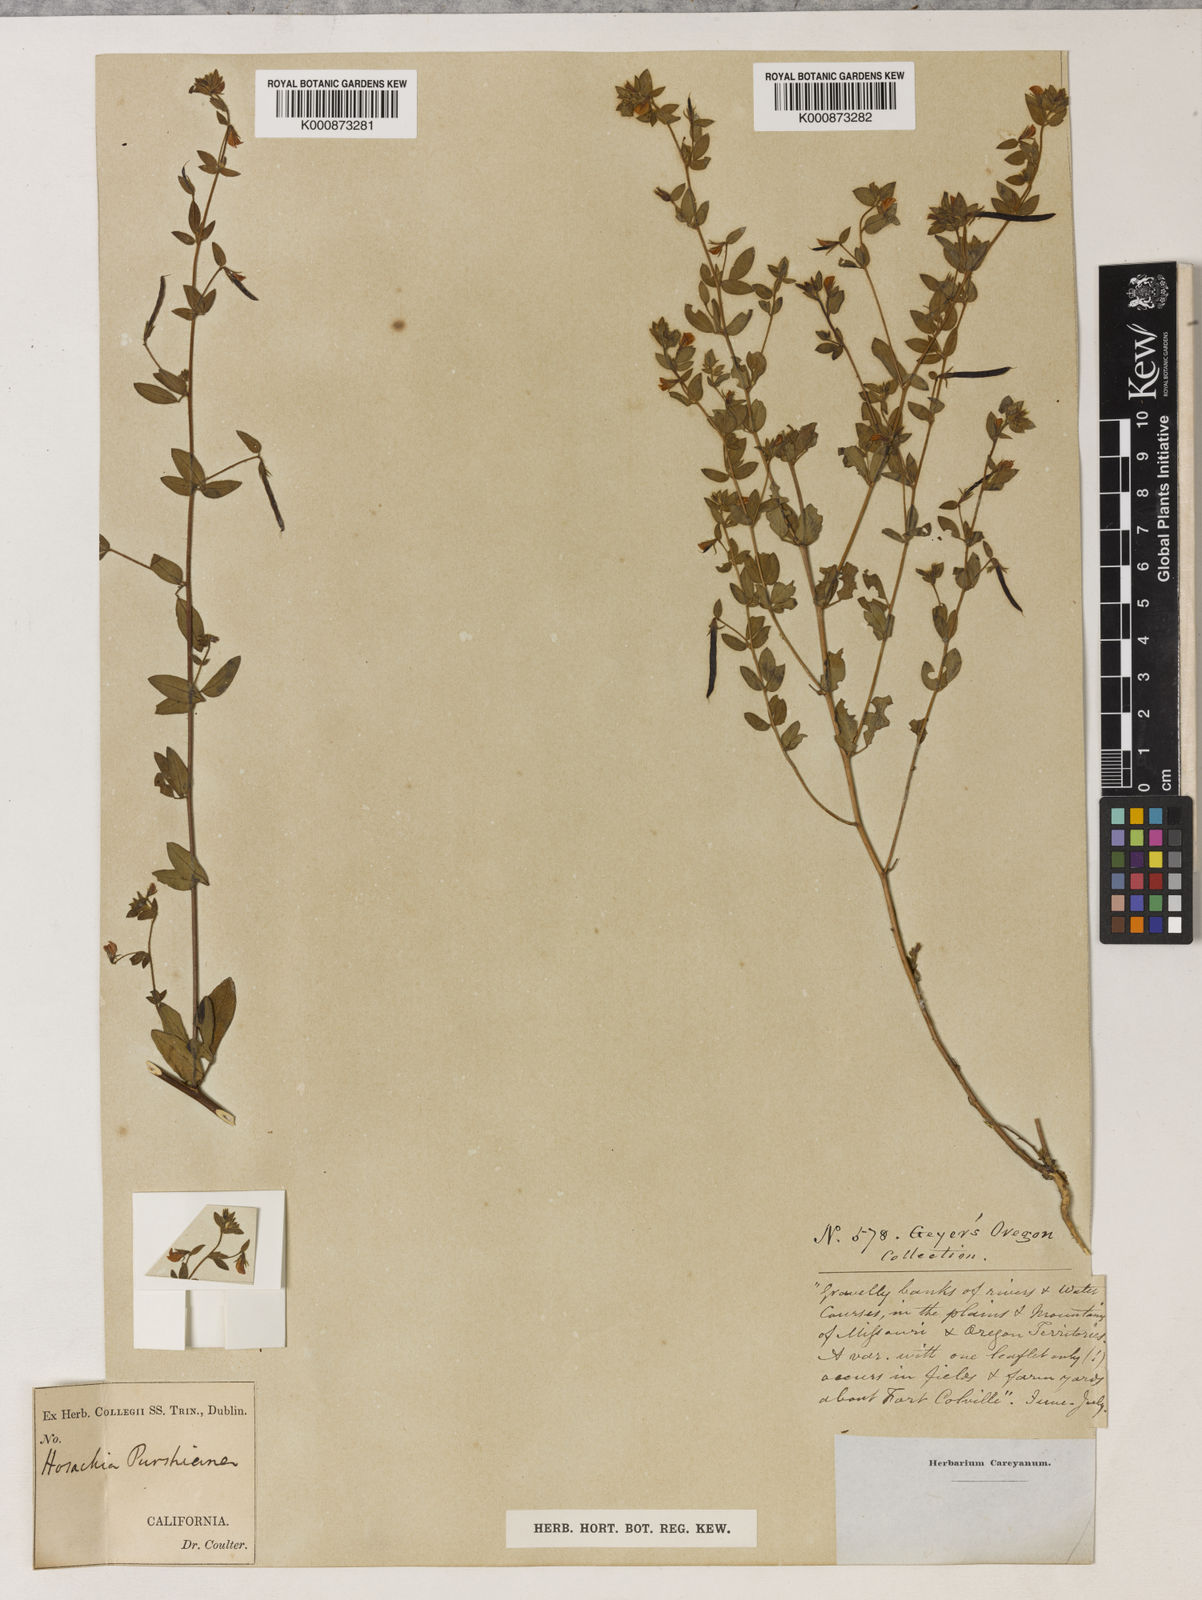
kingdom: Plantae
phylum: Tracheophyta
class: Magnoliopsida
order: Fabales
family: Fabaceae
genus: Collaea
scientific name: Collaea speciosa
